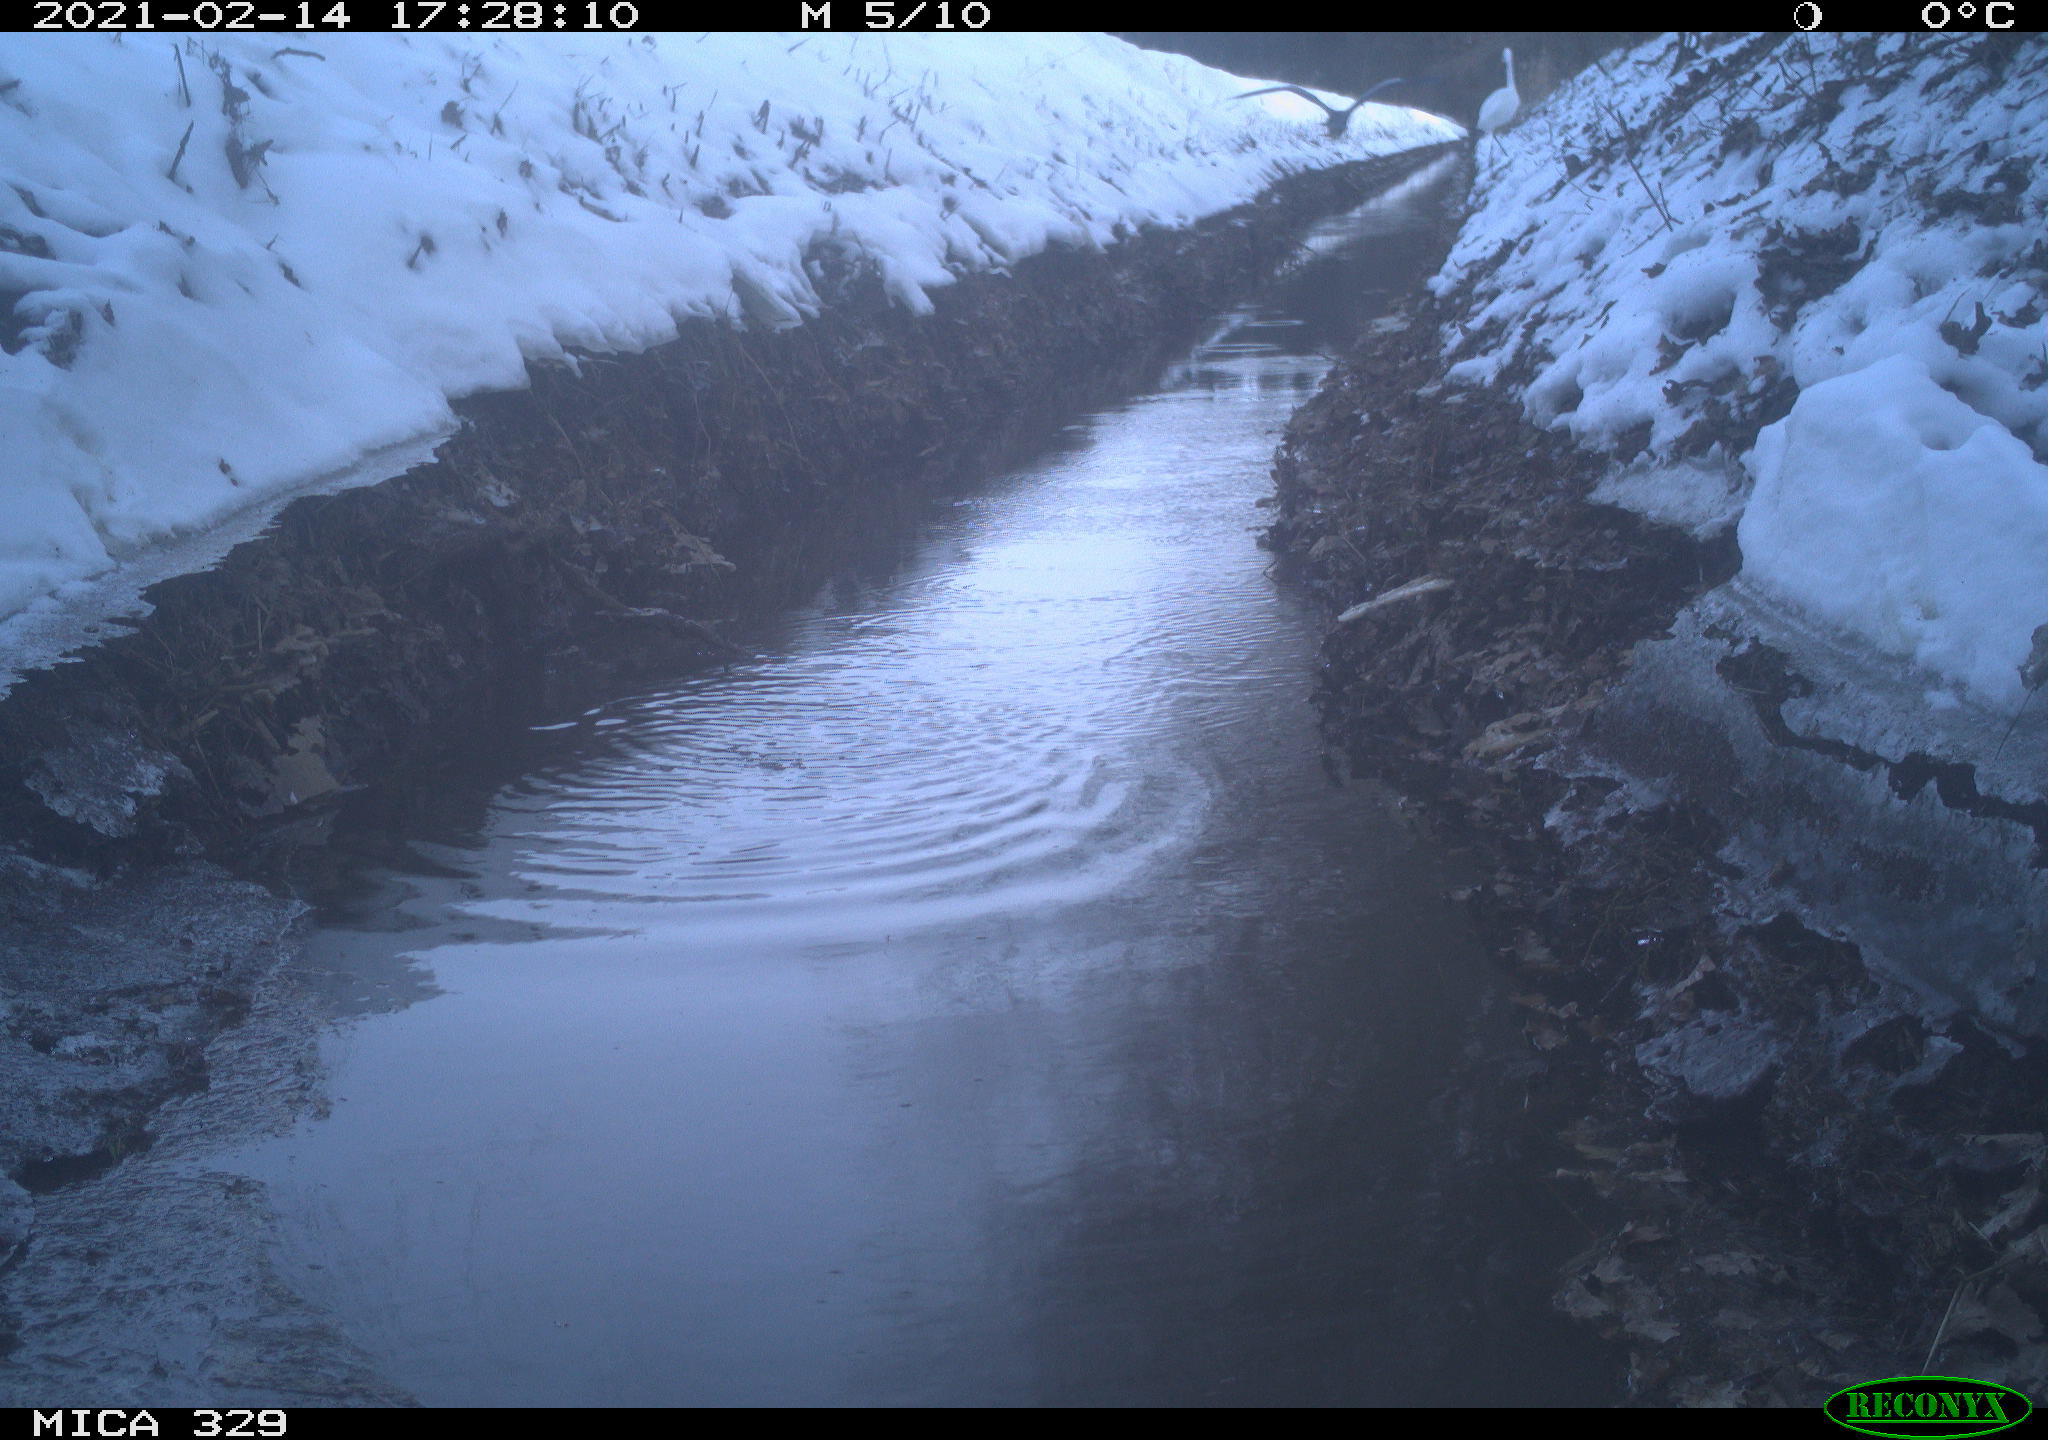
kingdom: Animalia
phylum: Chordata
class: Aves
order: Pelecaniformes
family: Ardeidae
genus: Ardea
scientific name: Ardea alba
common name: Great egret
